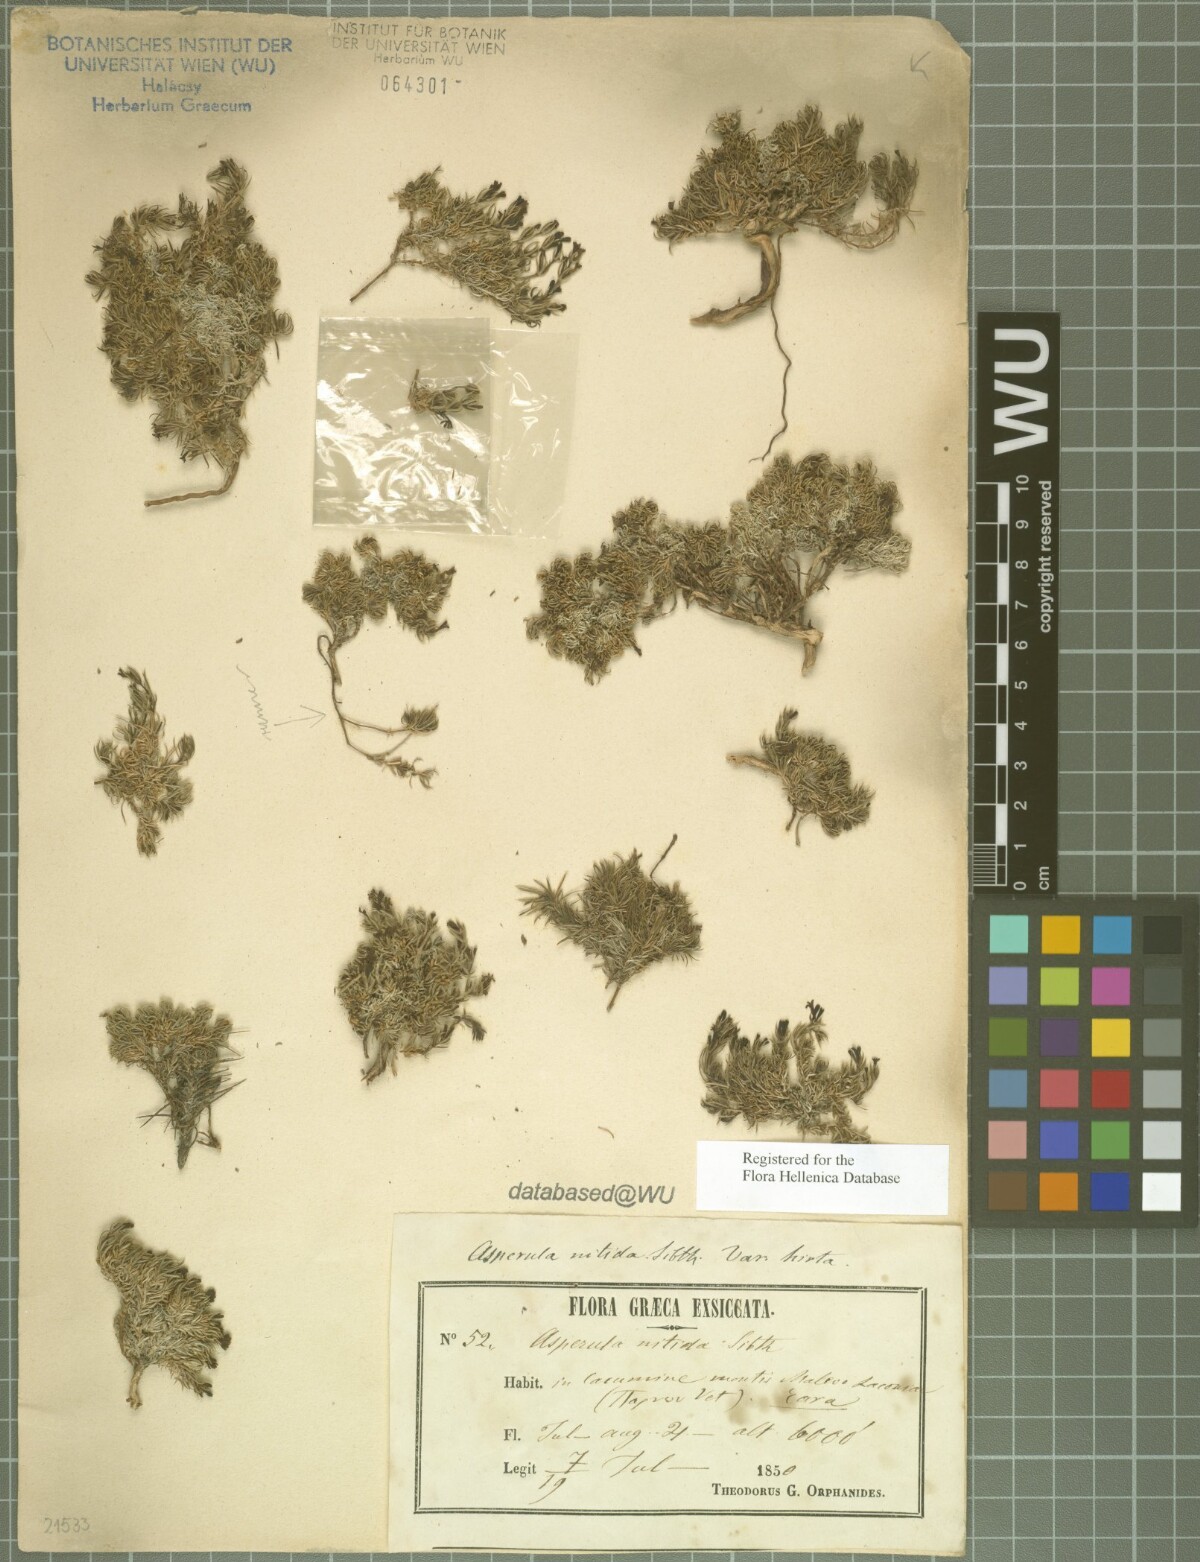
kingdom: Plantae
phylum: Tracheophyta
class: Magnoliopsida
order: Gentianales
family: Rubiaceae
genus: Cynanchica
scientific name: Cynanchica boissieri
